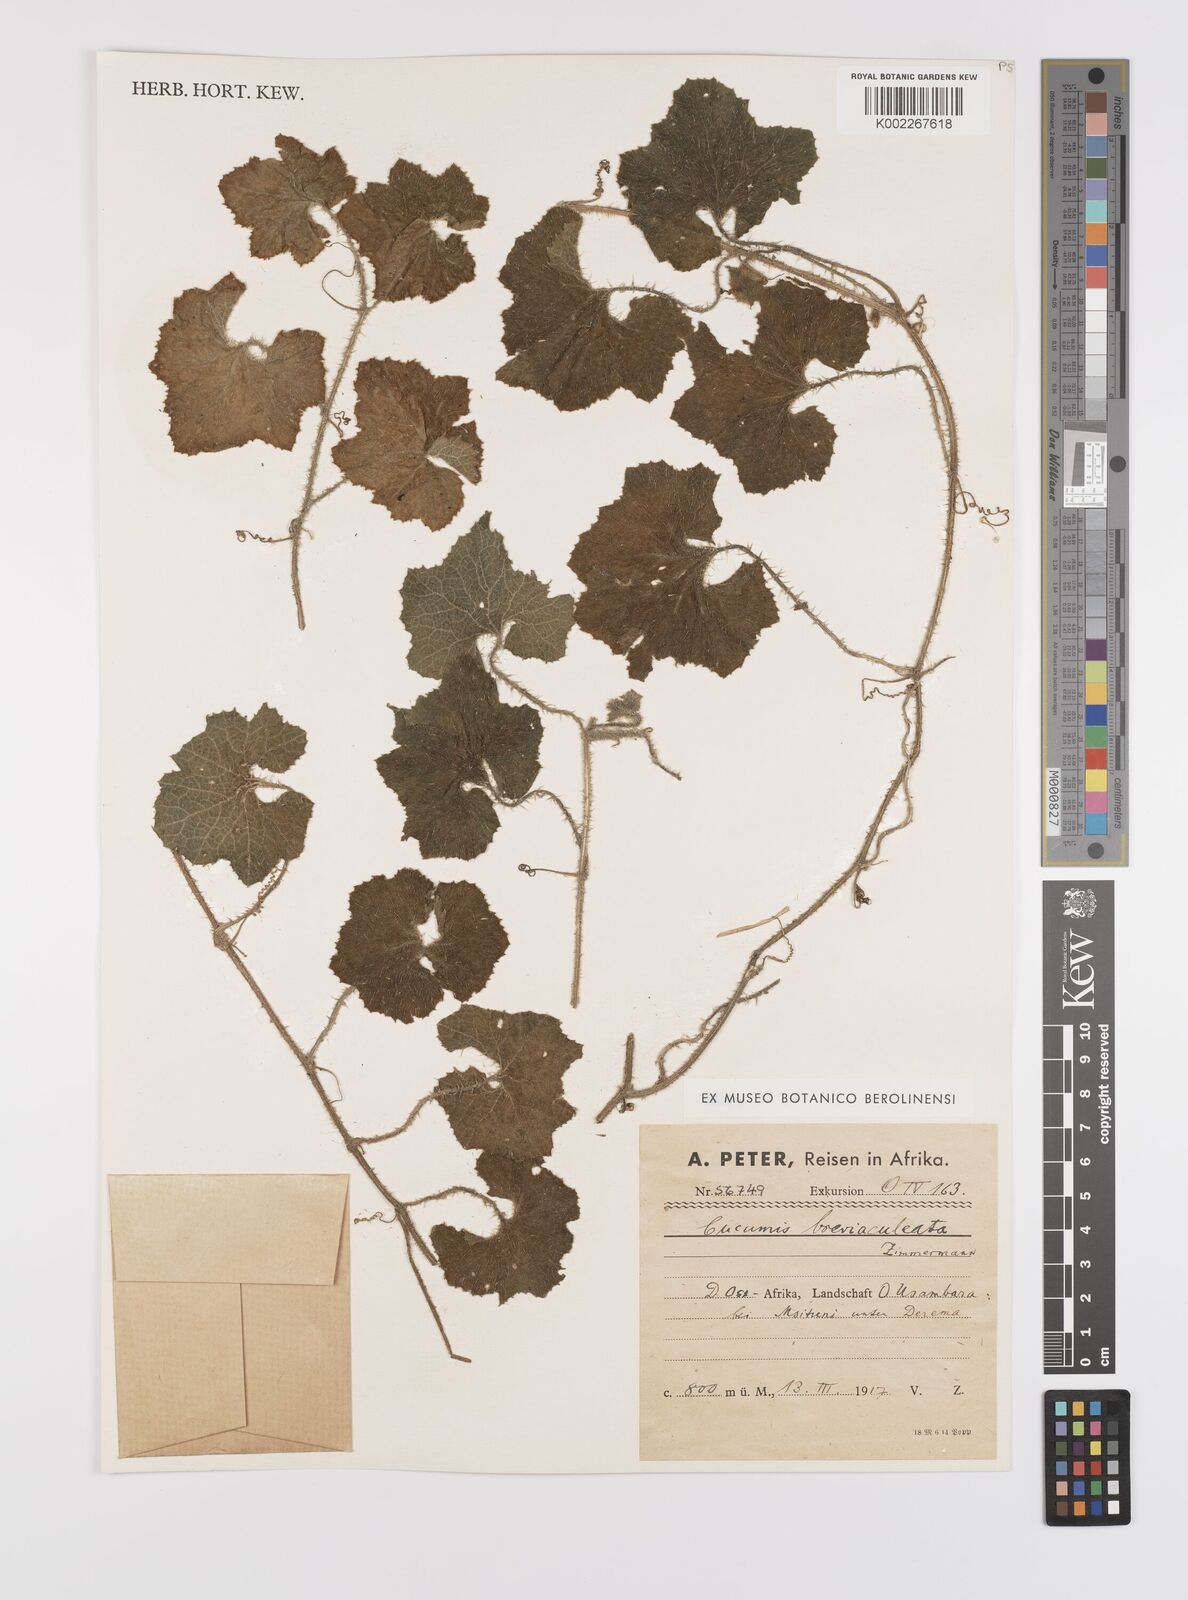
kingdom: Plantae
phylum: Tracheophyta
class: Magnoliopsida
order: Cucurbitales
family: Cucurbitaceae
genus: Cucumis
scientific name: Cucumis sacleuxii
